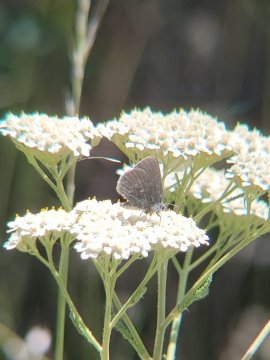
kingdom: Animalia
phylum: Arthropoda
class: Insecta
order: Lepidoptera
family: Lycaenidae
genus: Satyrium
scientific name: Satyrium fuliginosa
